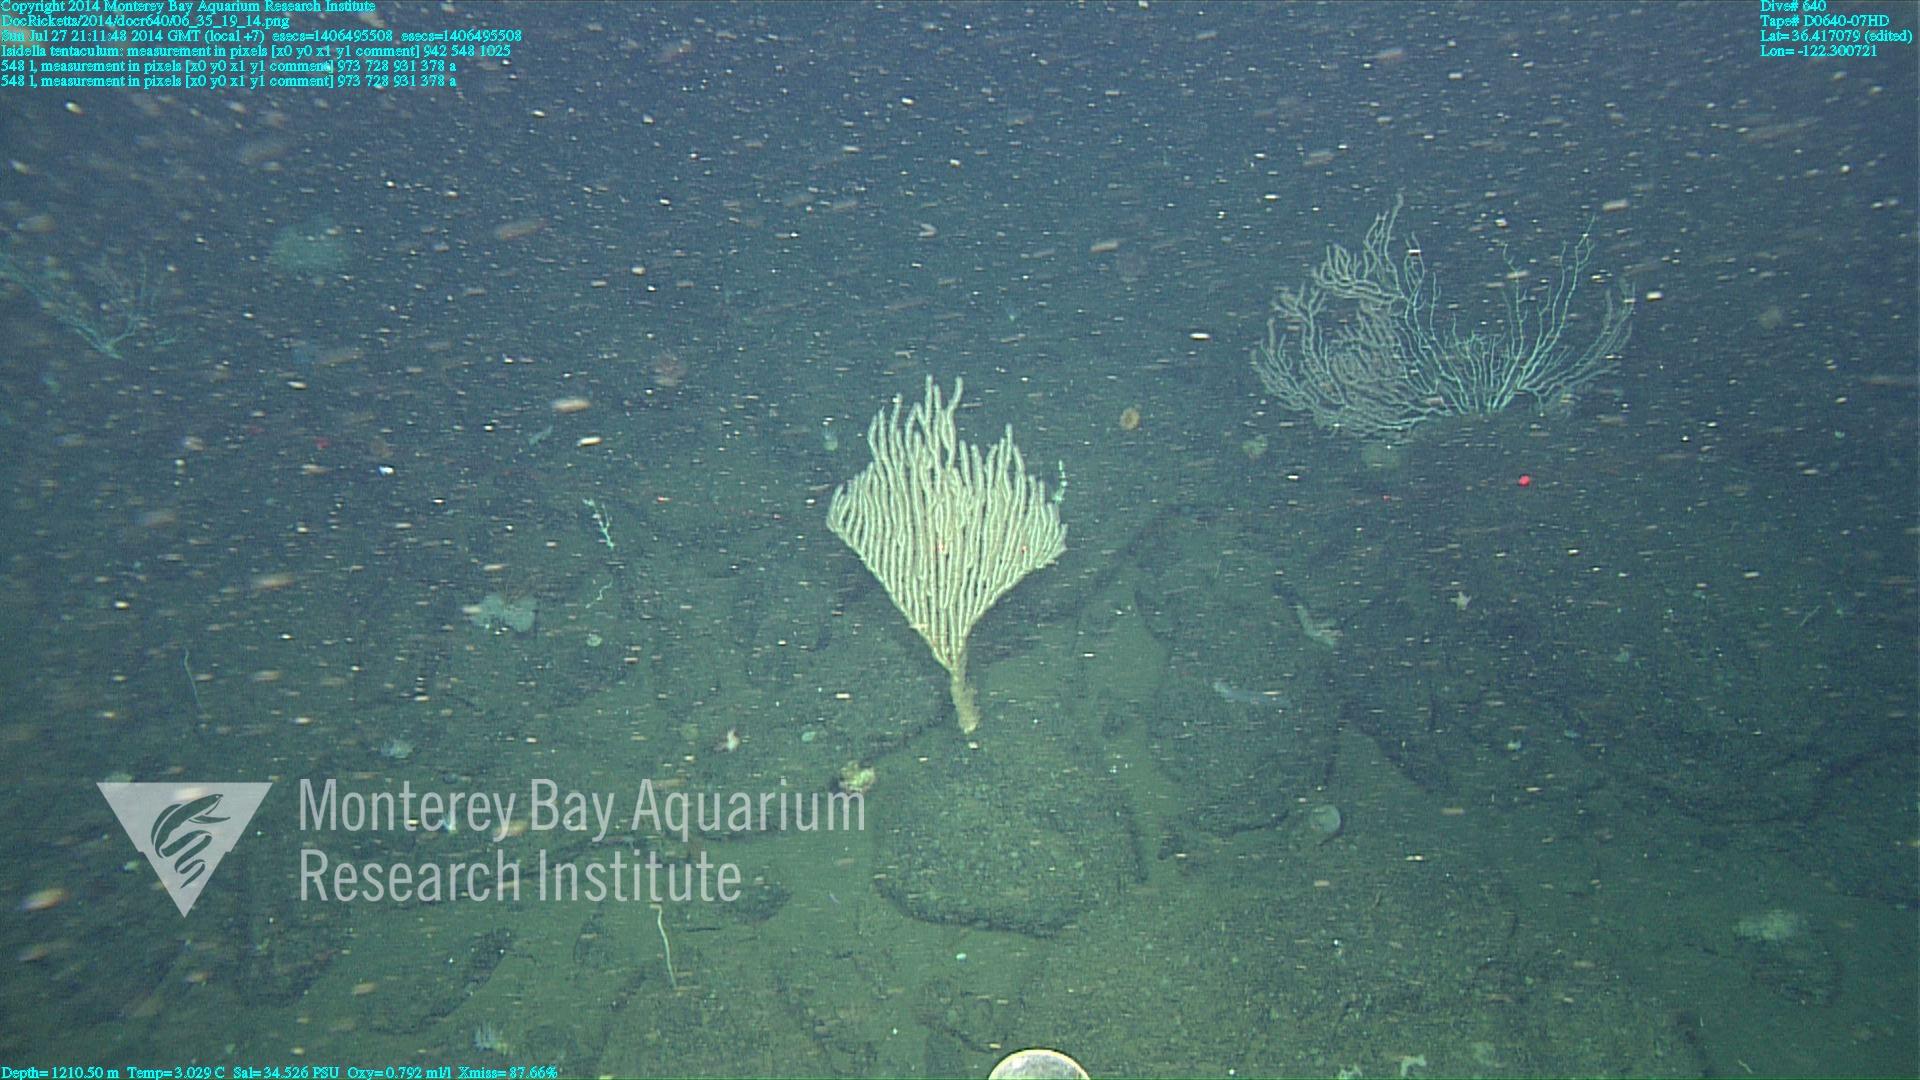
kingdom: Animalia
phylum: Cnidaria
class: Anthozoa
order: Scleralcyonacea
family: Keratoisididae
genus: Isidella
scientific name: Isidella tentaculum
